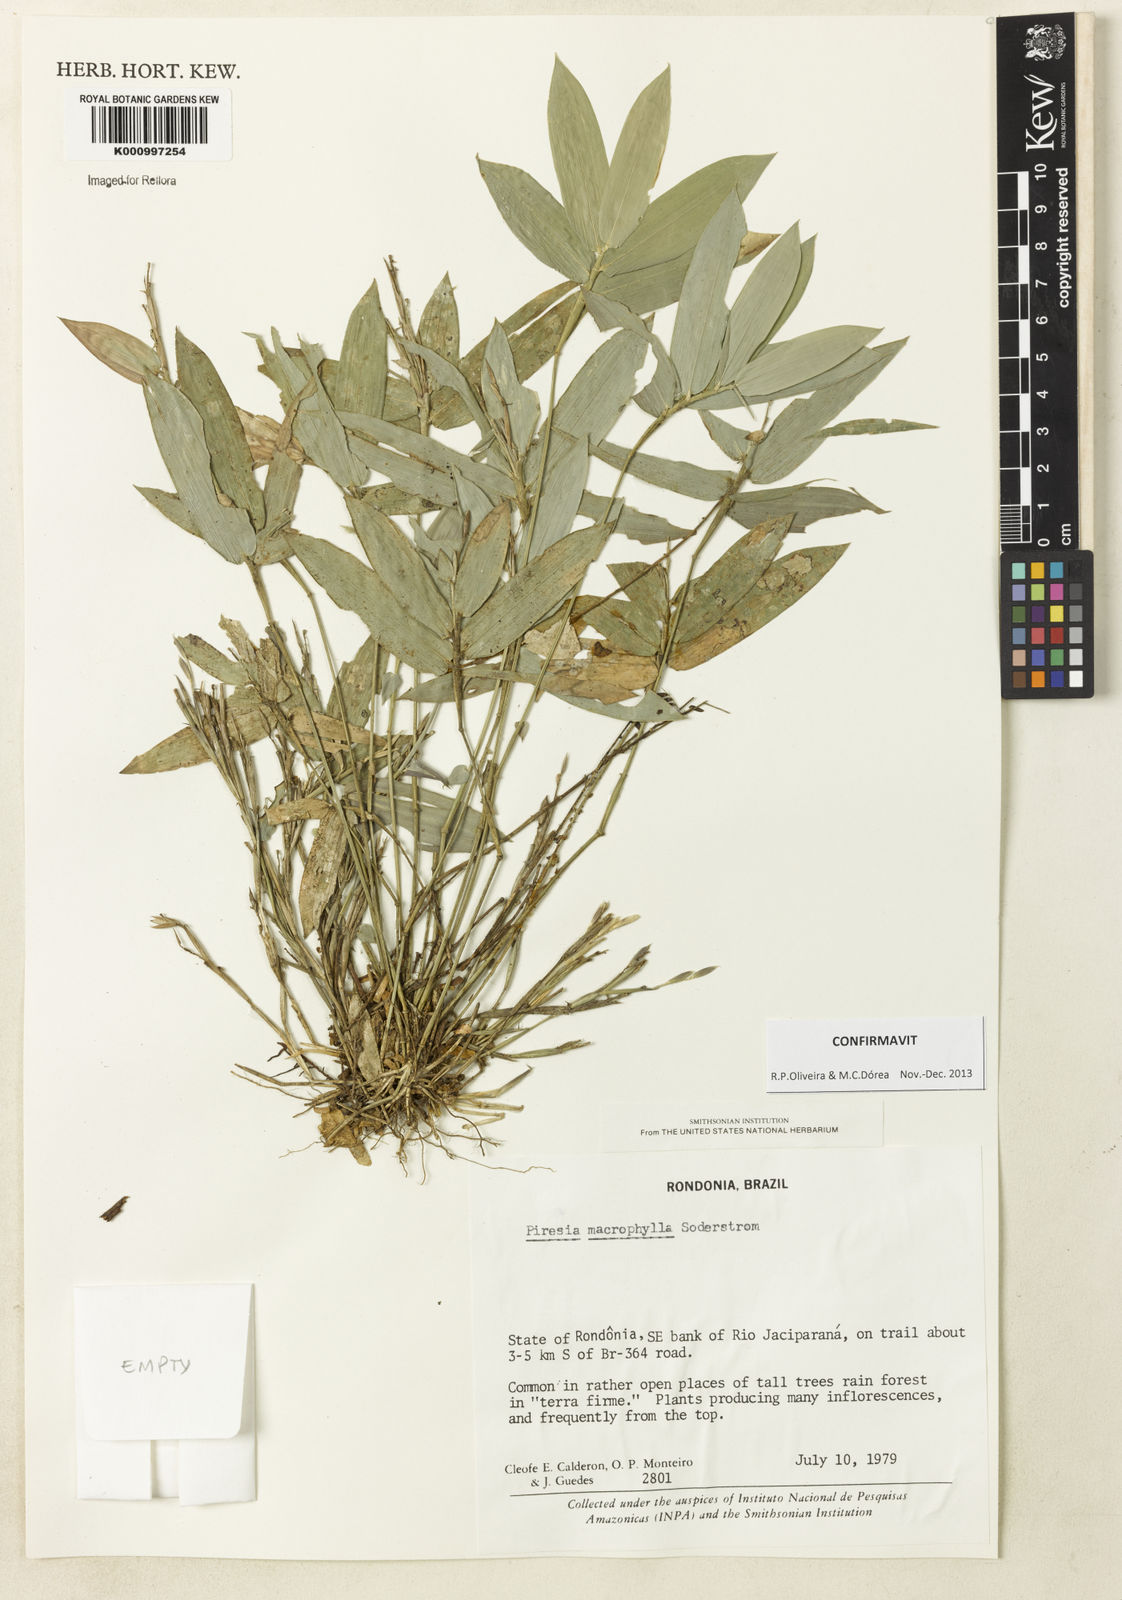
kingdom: Plantae
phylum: Tracheophyta
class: Liliopsida
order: Poales
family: Poaceae
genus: Piresia
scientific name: Piresia macrophylla
